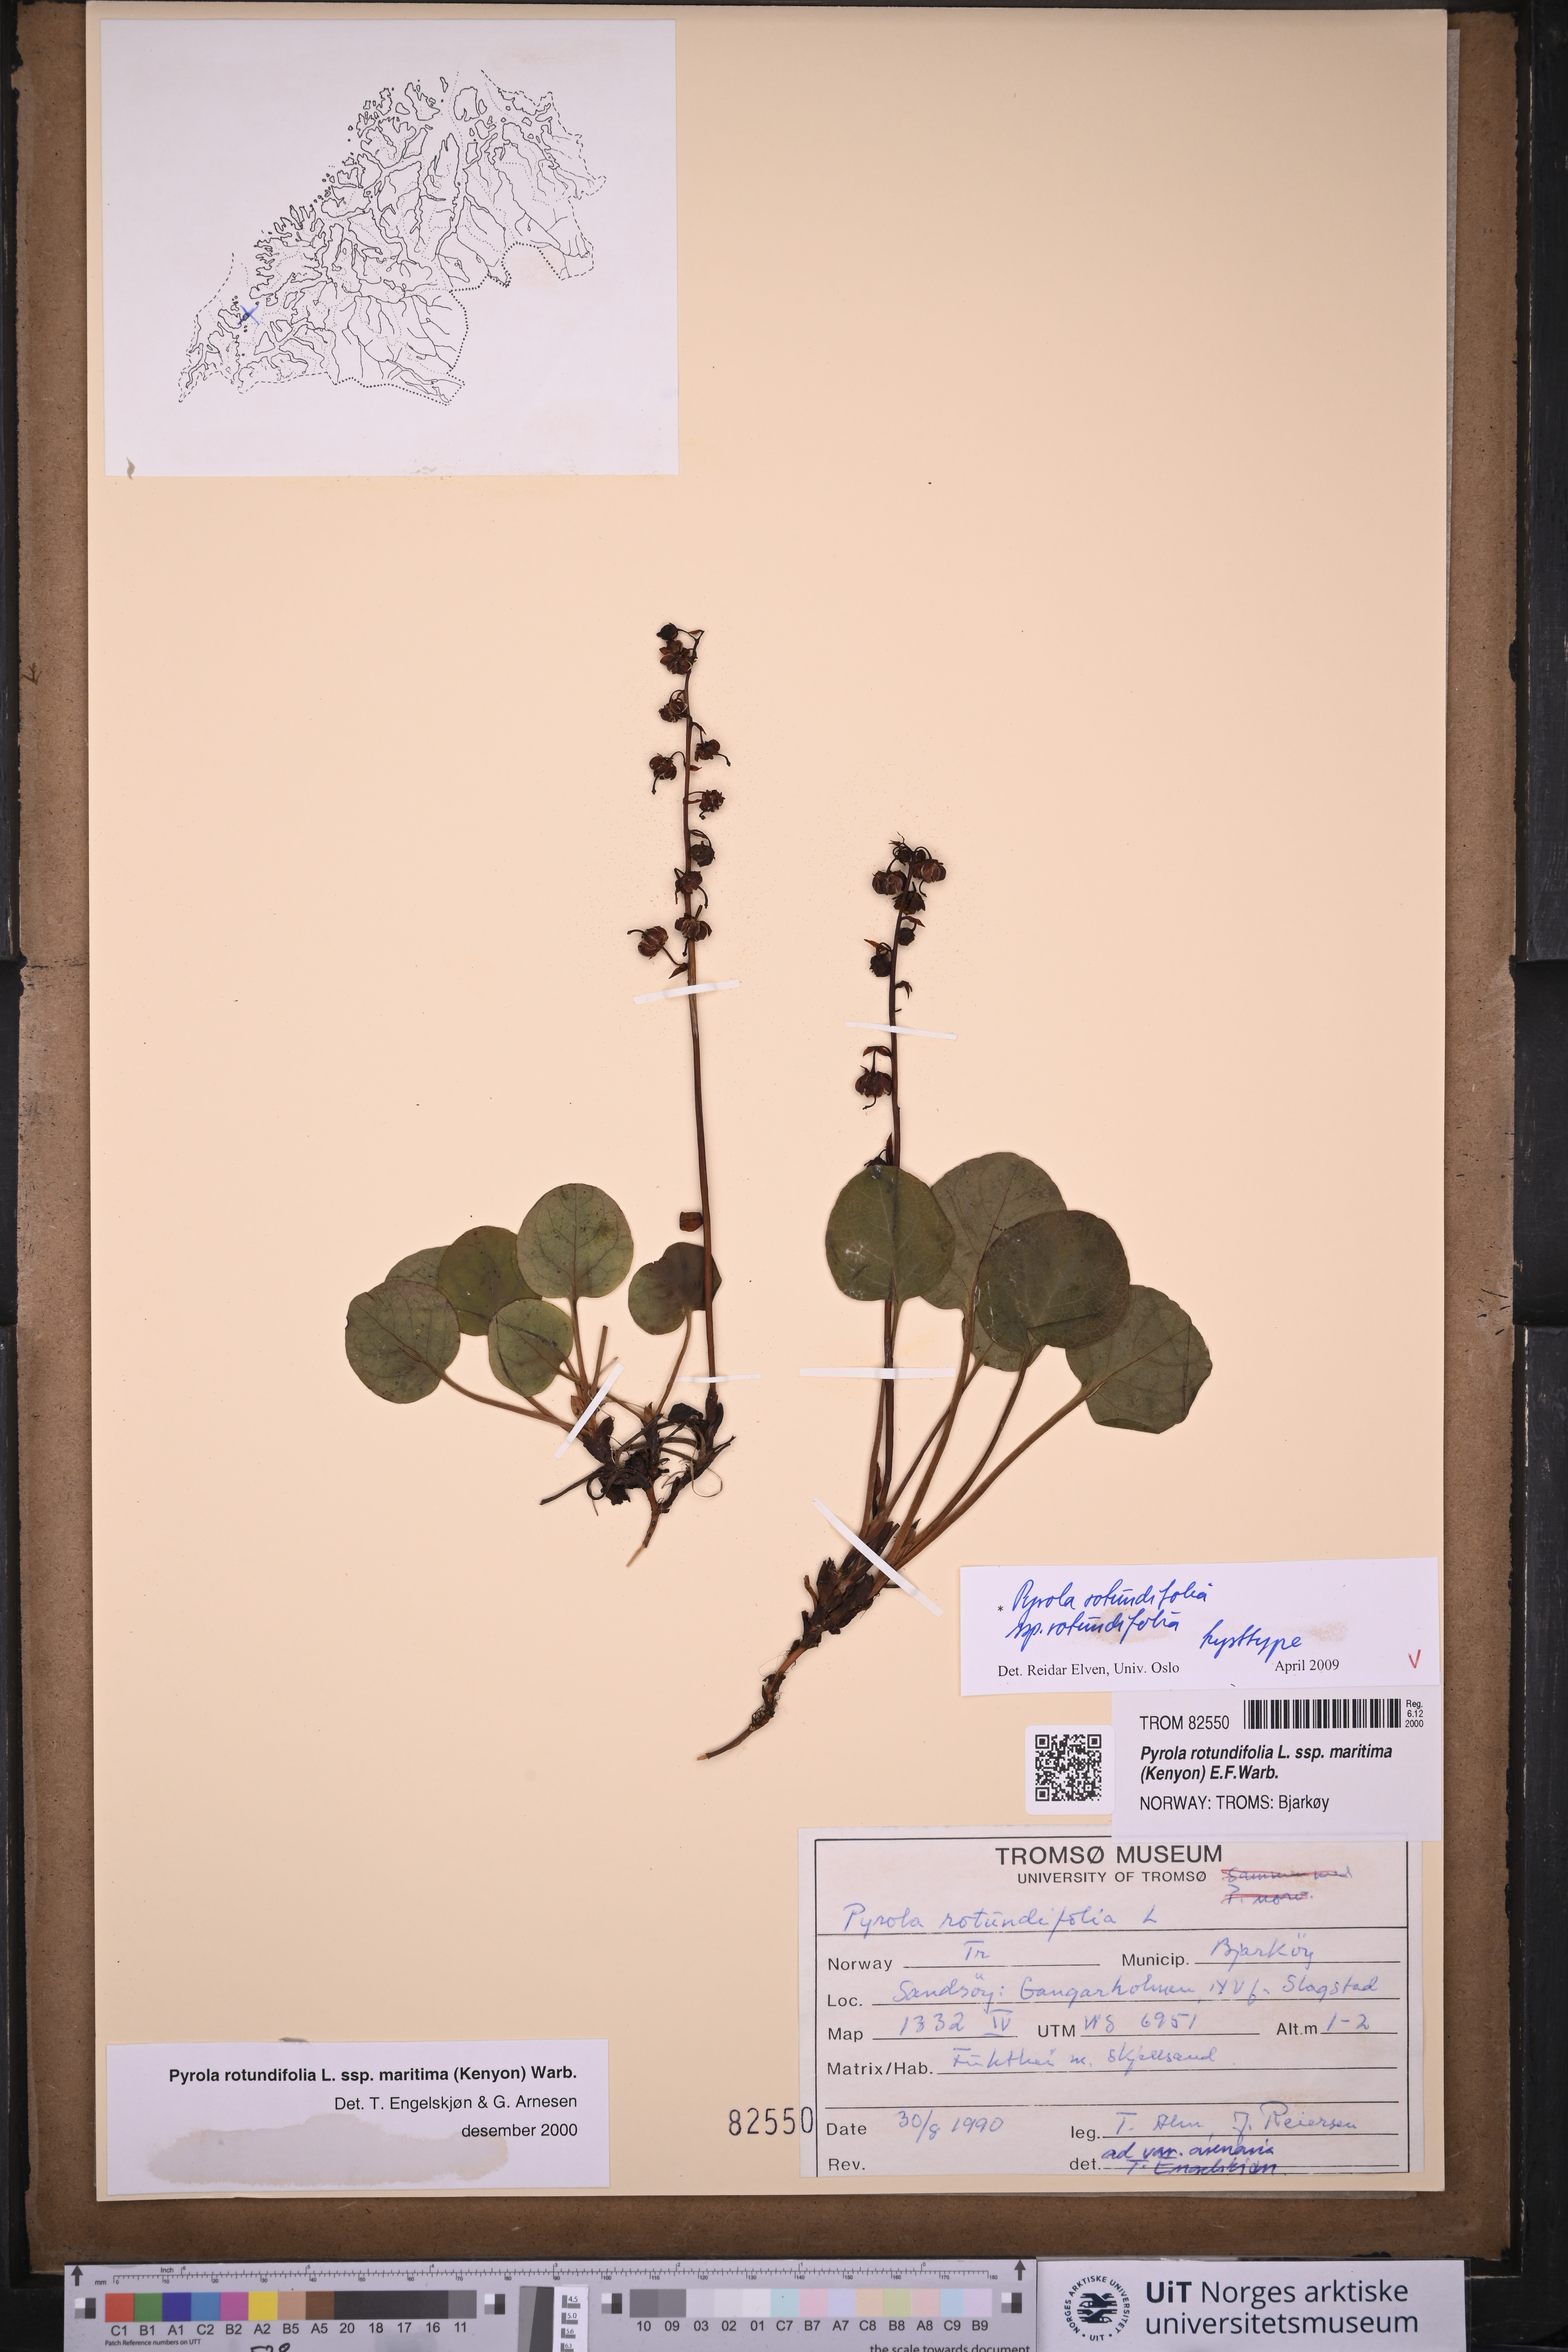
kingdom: Plantae
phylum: Tracheophyta
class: Magnoliopsida
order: Ericales
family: Ericaceae
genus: Pyrola
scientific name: Pyrola rotundifolia
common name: Round-leaved wintergreen
